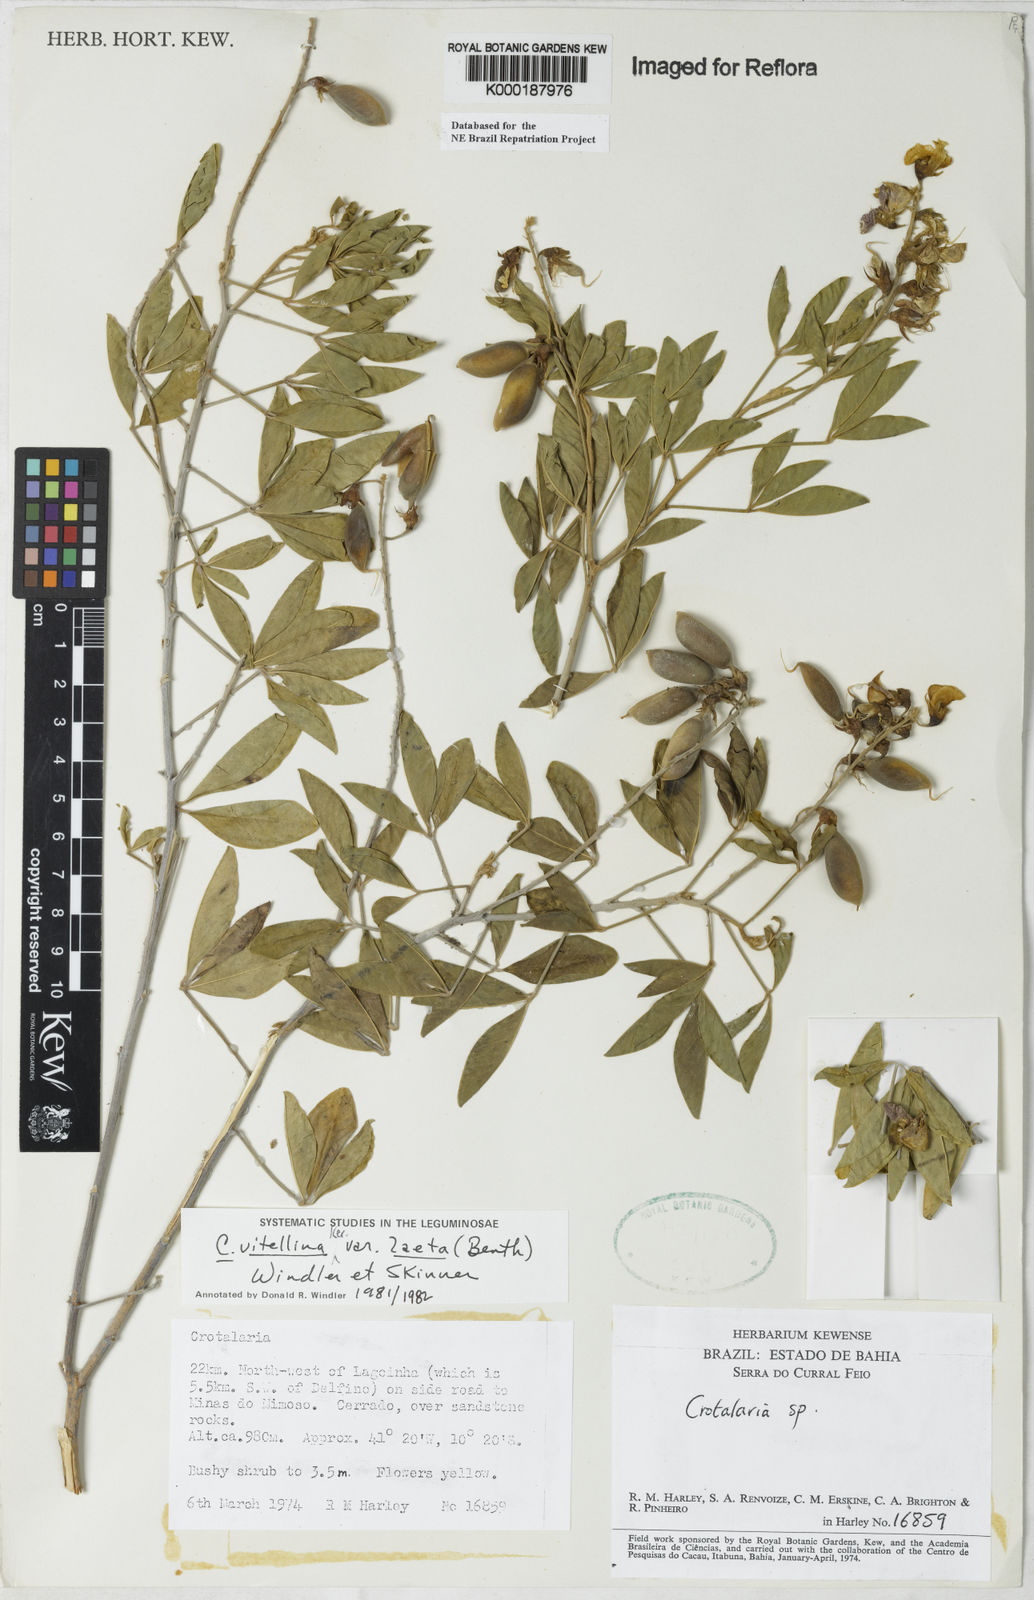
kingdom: Plantae
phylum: Tracheophyta
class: Magnoliopsida
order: Fabales
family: Fabaceae
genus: Crotalaria
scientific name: Crotalaria laeta
